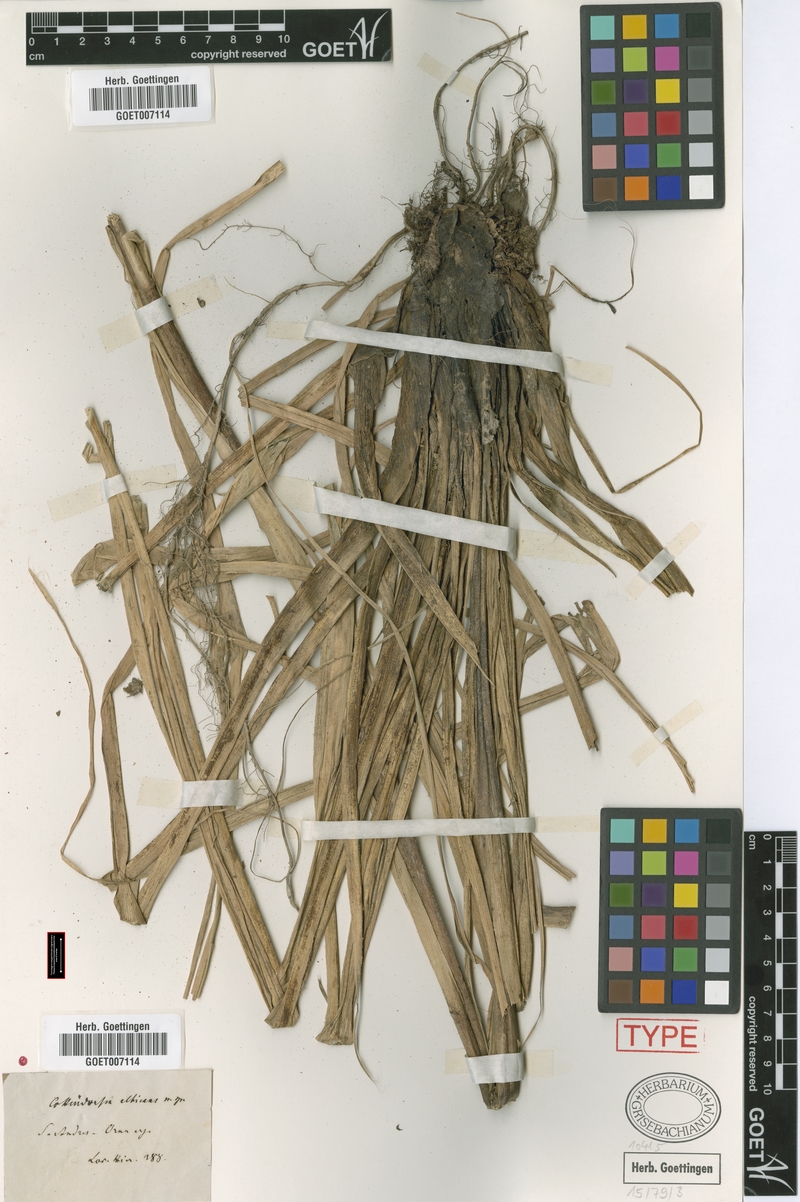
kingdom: Plantae
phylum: Tracheophyta
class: Liliopsida
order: Poales
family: Bromeliaceae
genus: Fosterella
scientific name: Fosterella albicans
